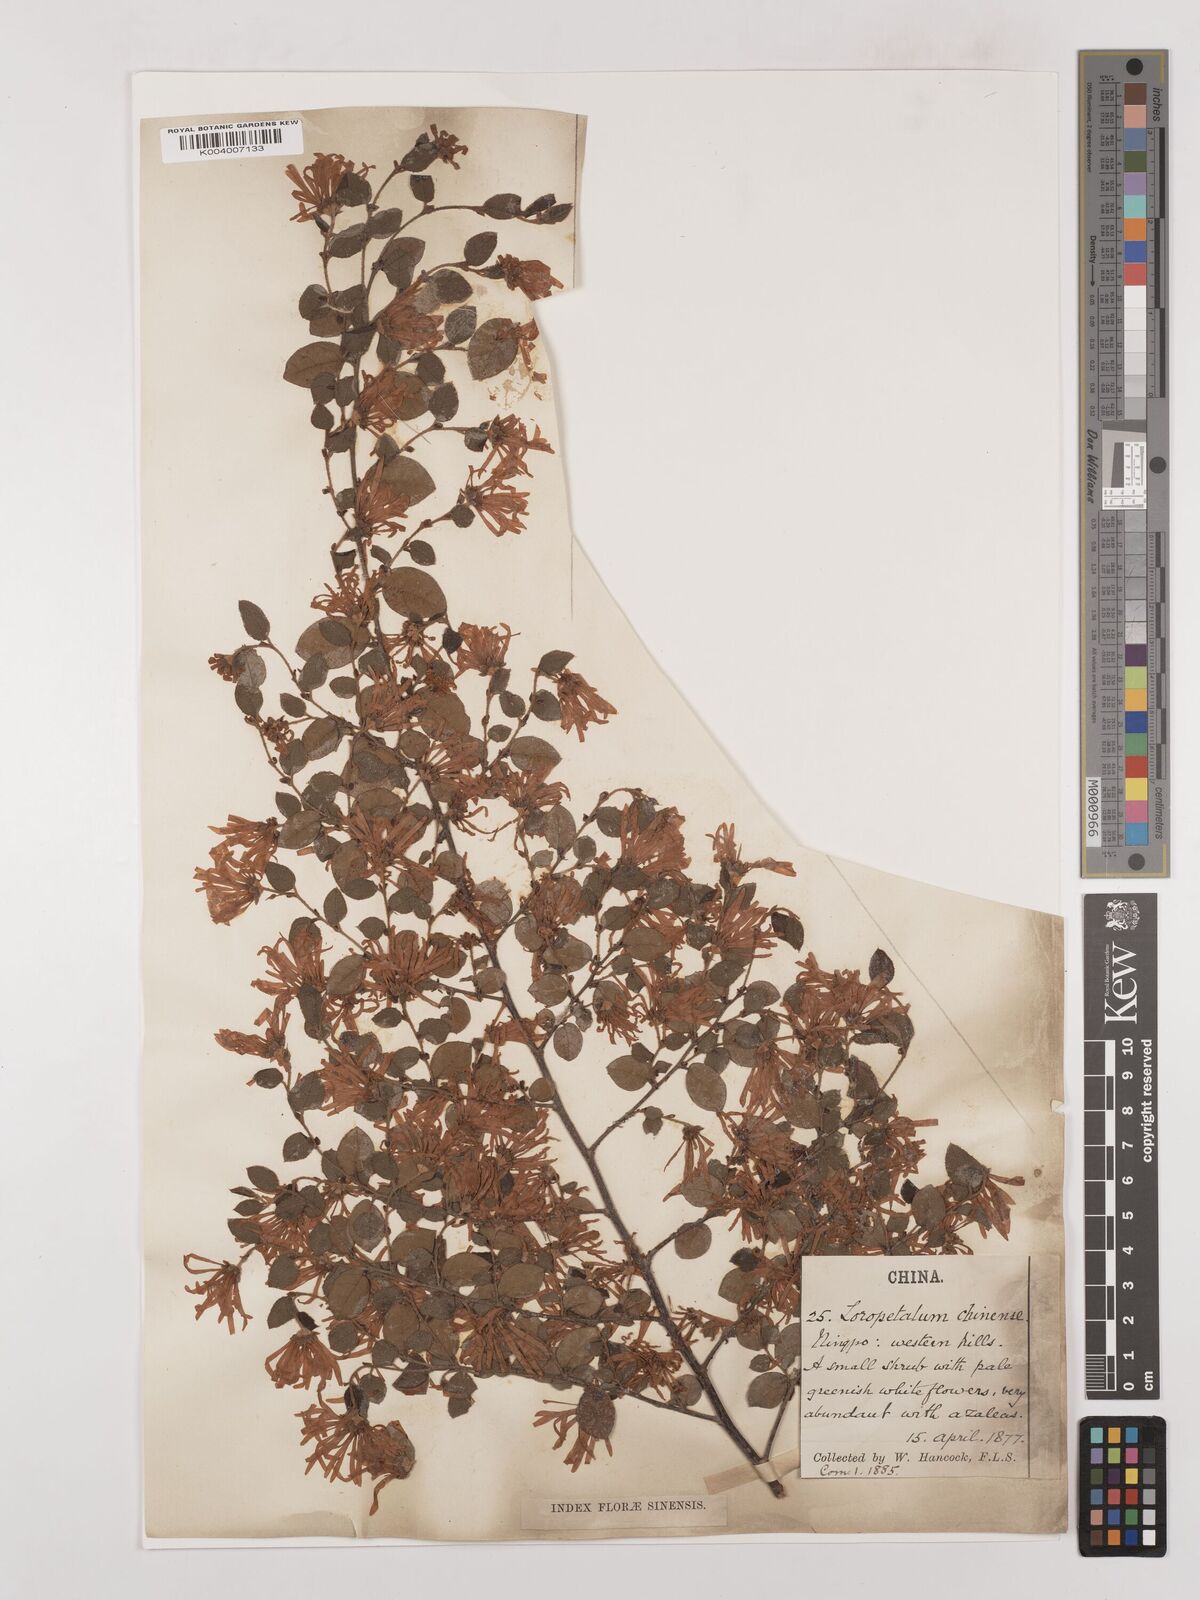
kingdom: Plantae
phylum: Tracheophyta
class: Magnoliopsida
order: Saxifragales
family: Hamamelidaceae
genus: Loropetalum
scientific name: Loropetalum chinense
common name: Chinese fringe flower
